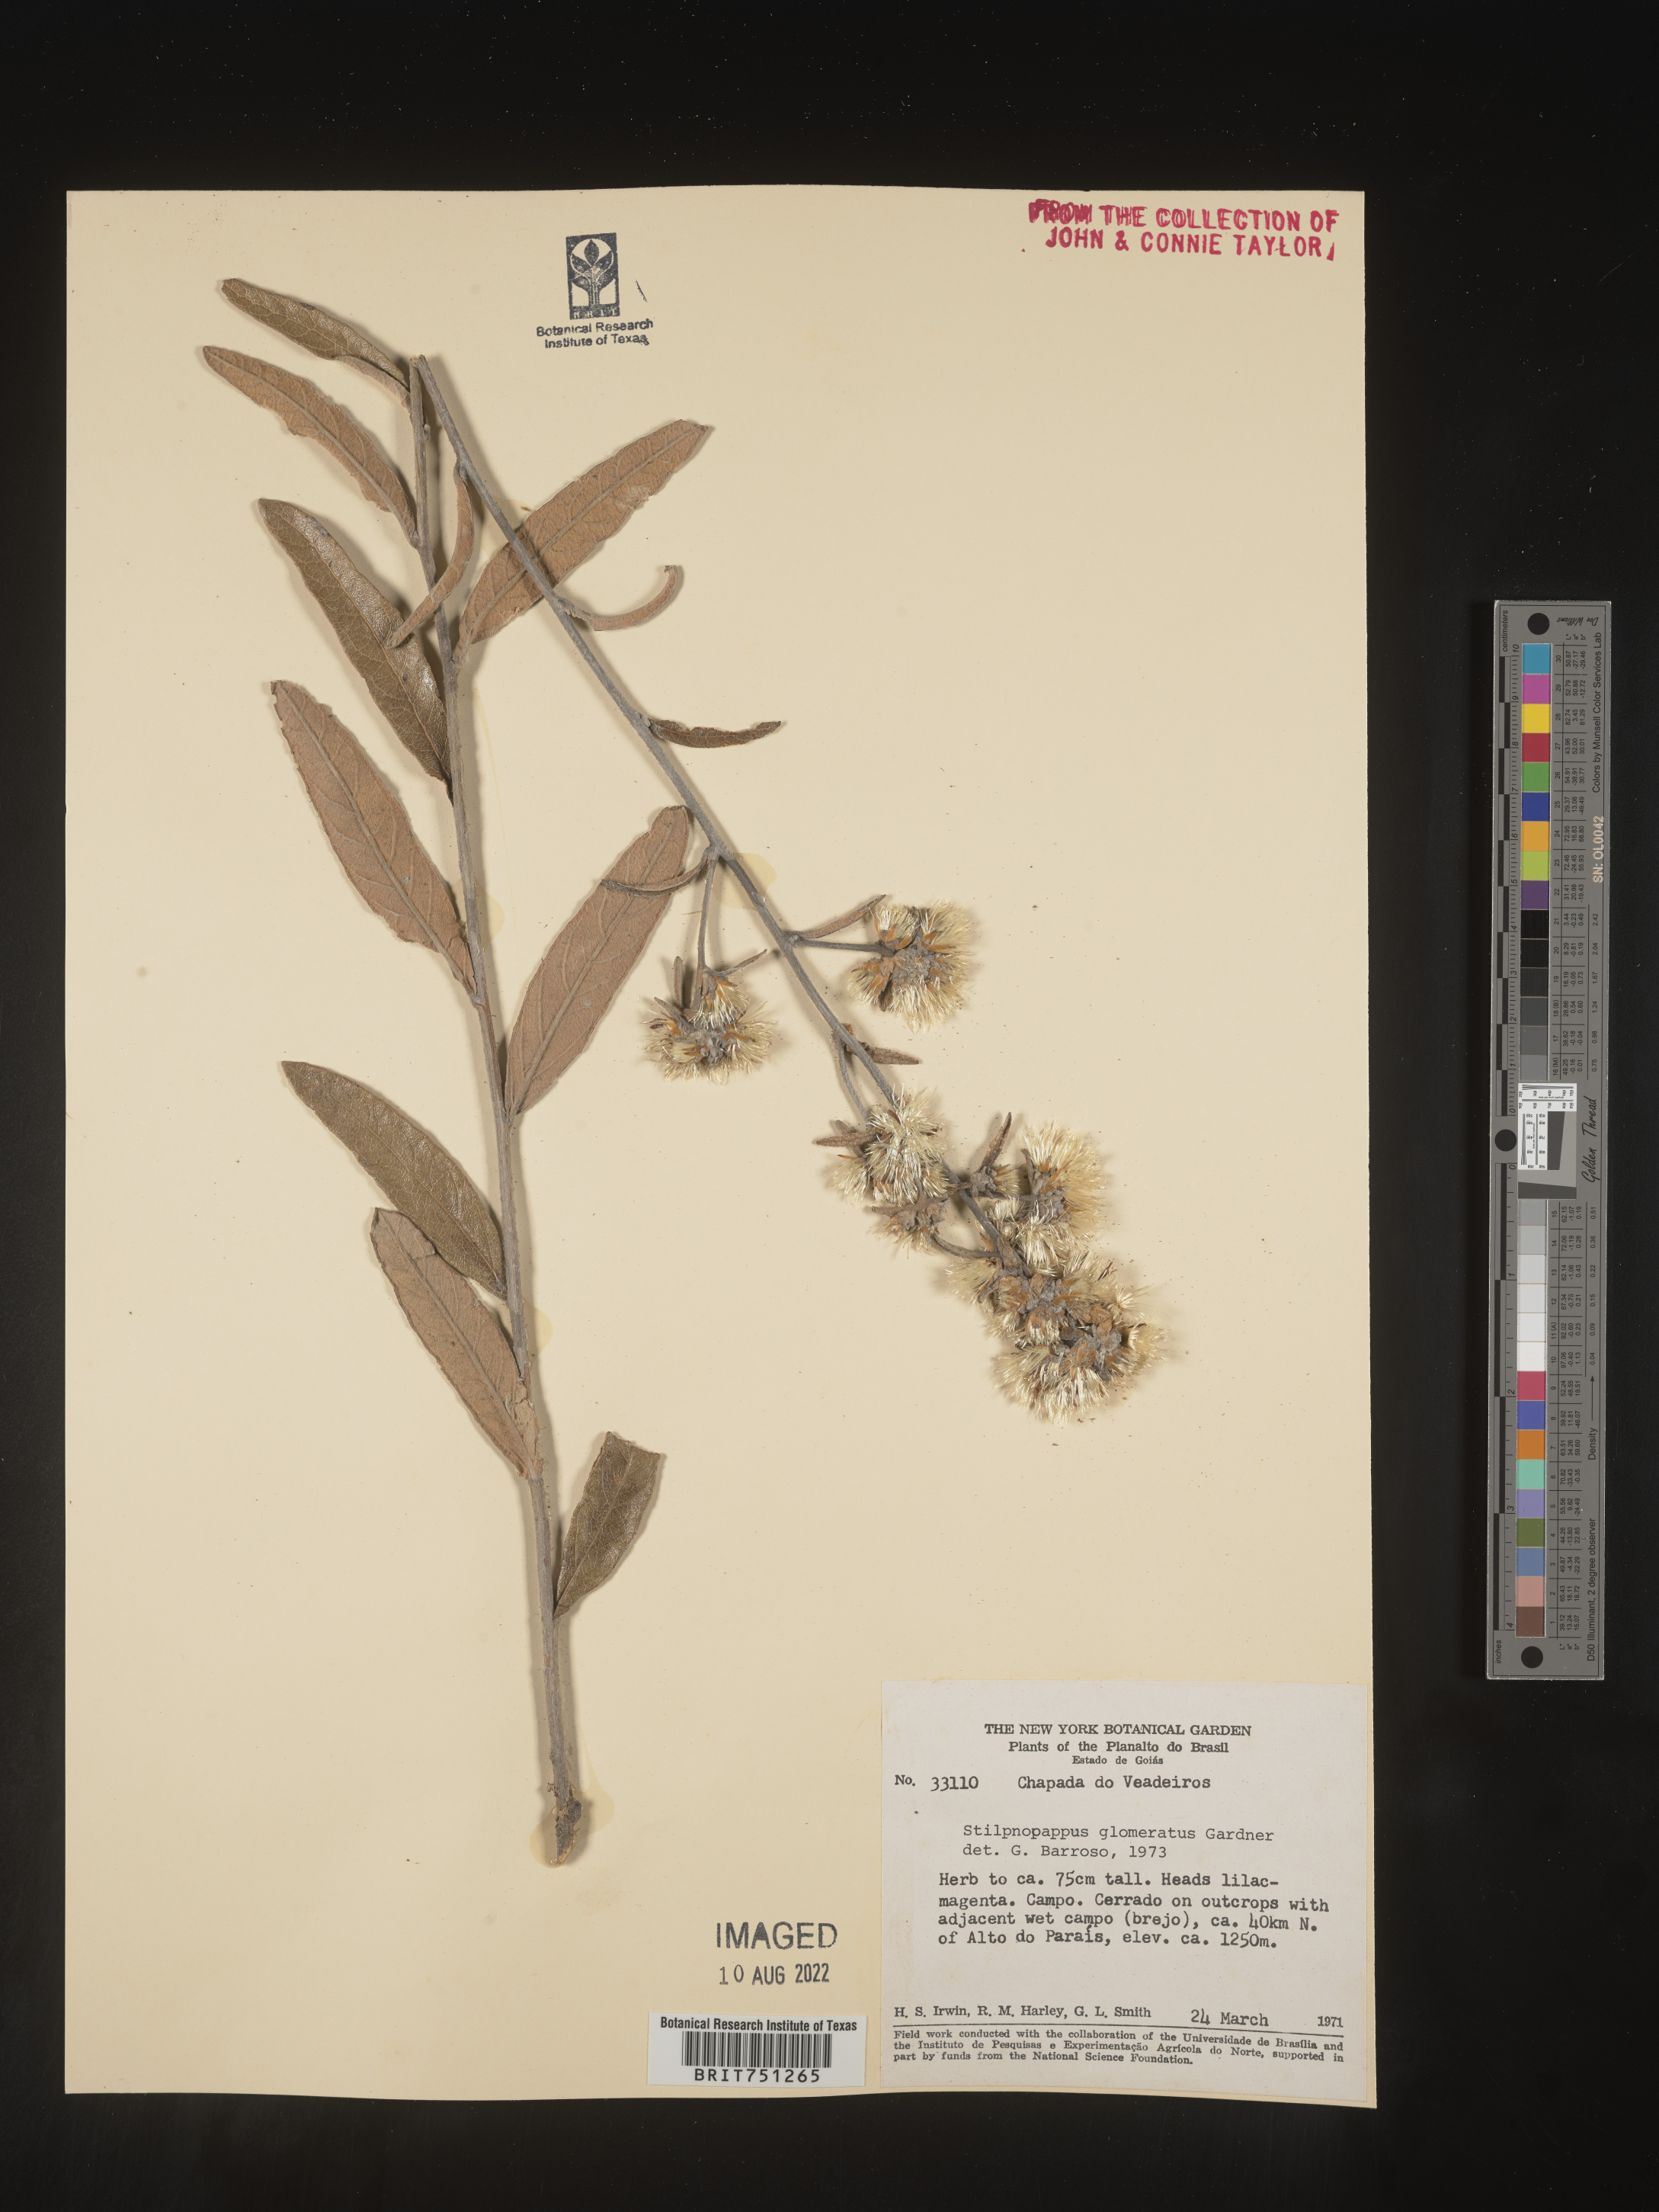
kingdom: Plantae
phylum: Tracheophyta
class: Magnoliopsida
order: Asterales
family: Asteraceae
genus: Stilpnopappus
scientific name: Stilpnopappus
